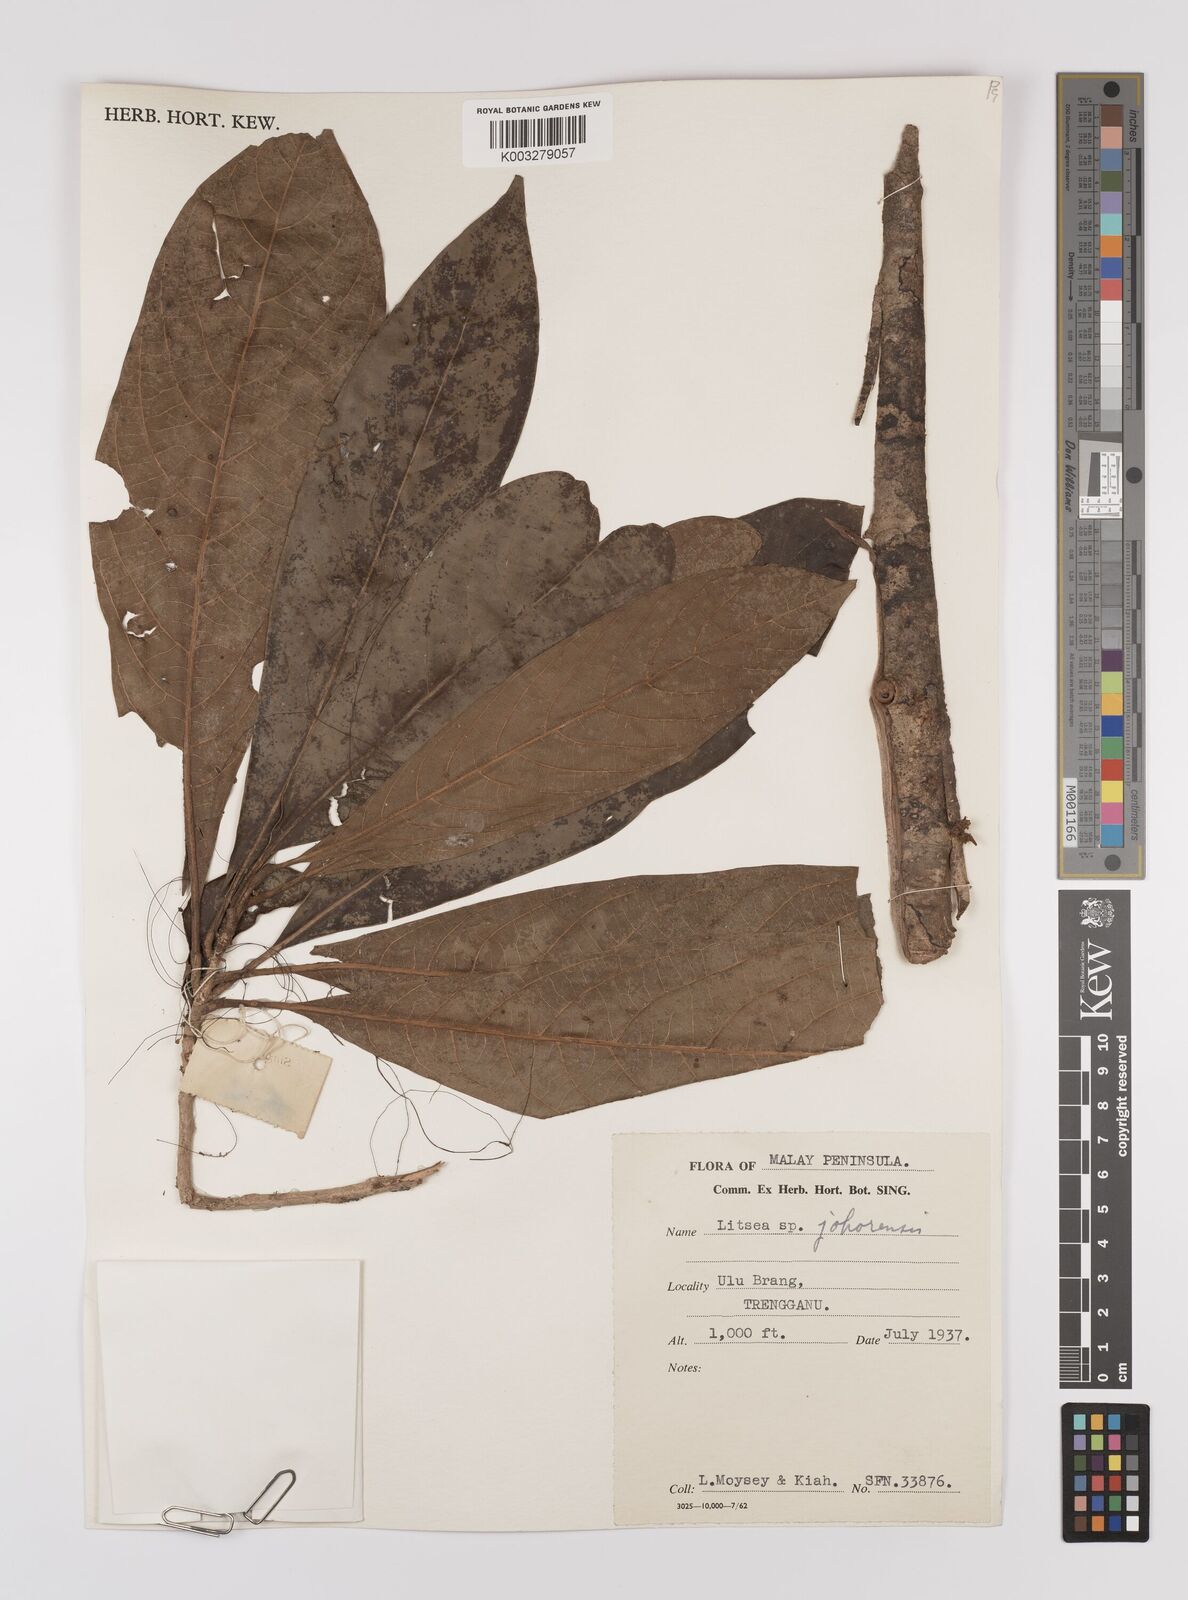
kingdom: Plantae
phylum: Tracheophyta
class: Magnoliopsida
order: Laurales
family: Lauraceae
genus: Litsea
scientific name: Litsea johorensis
